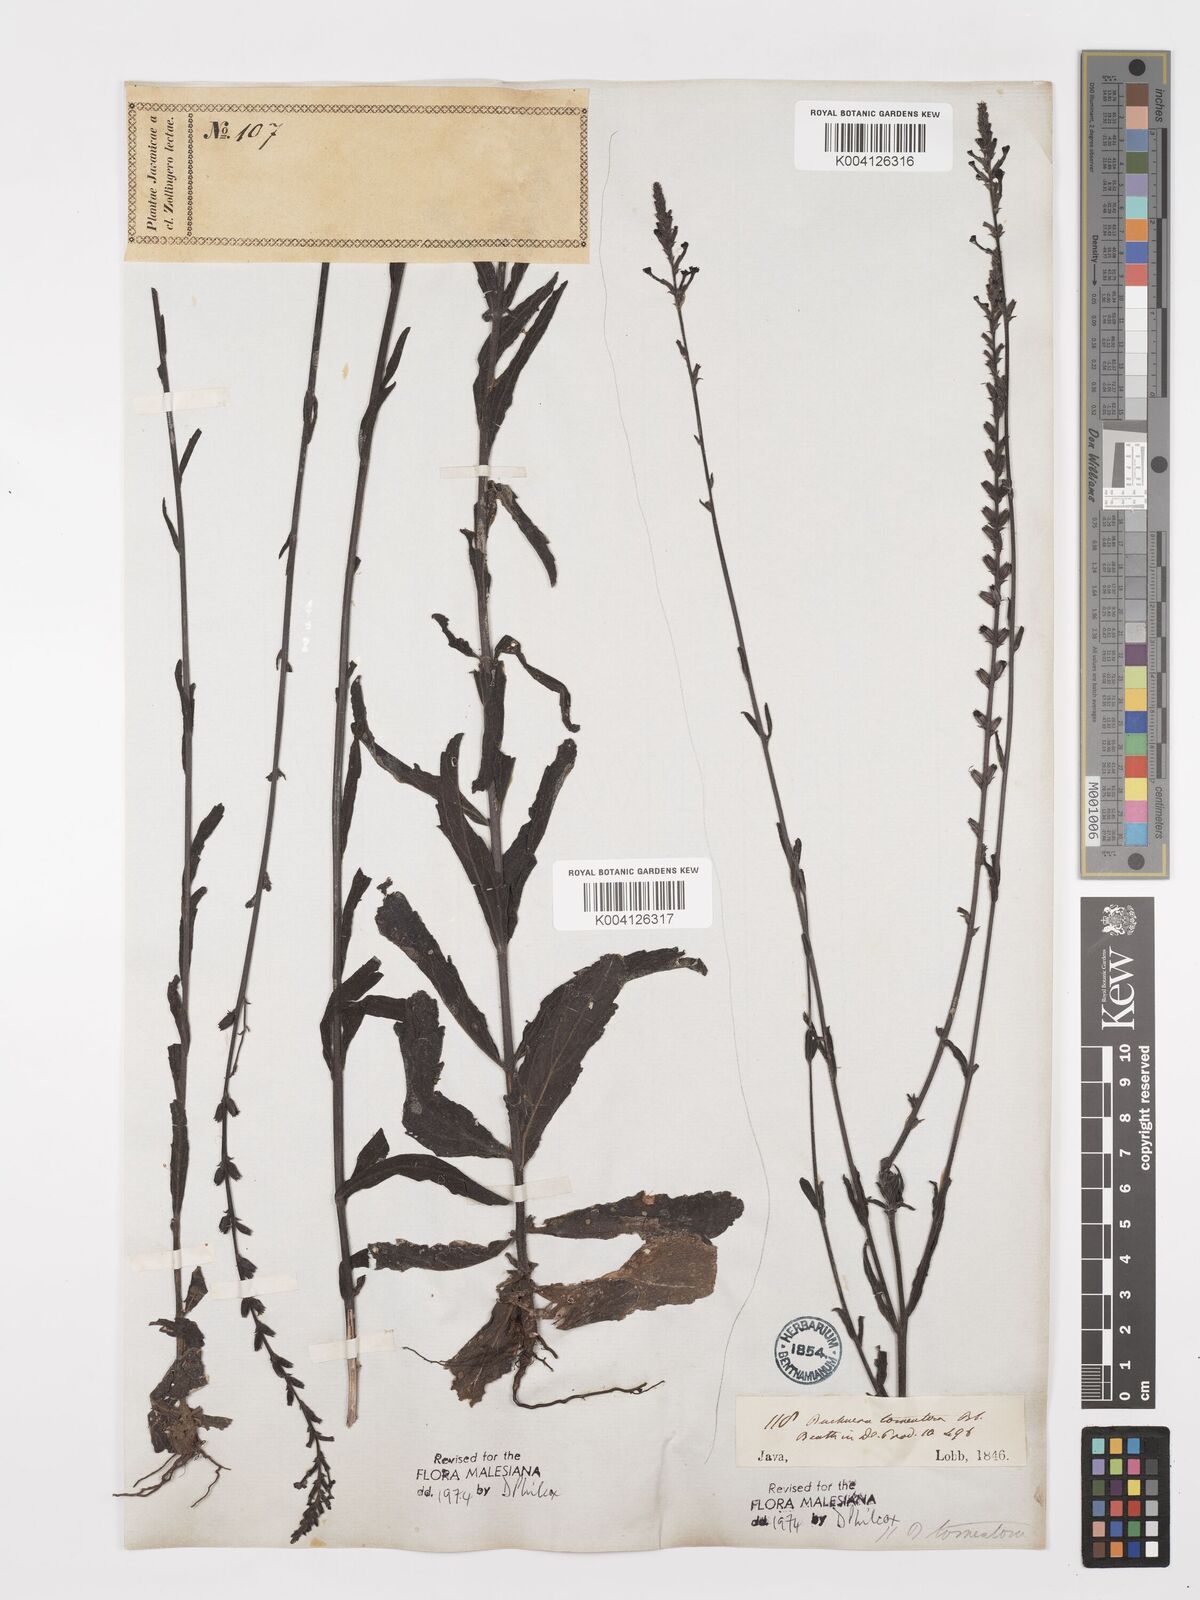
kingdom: Plantae
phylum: Tracheophyta
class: Magnoliopsida
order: Lamiales
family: Orobanchaceae
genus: Buchnera
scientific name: Buchnera tomentosa
